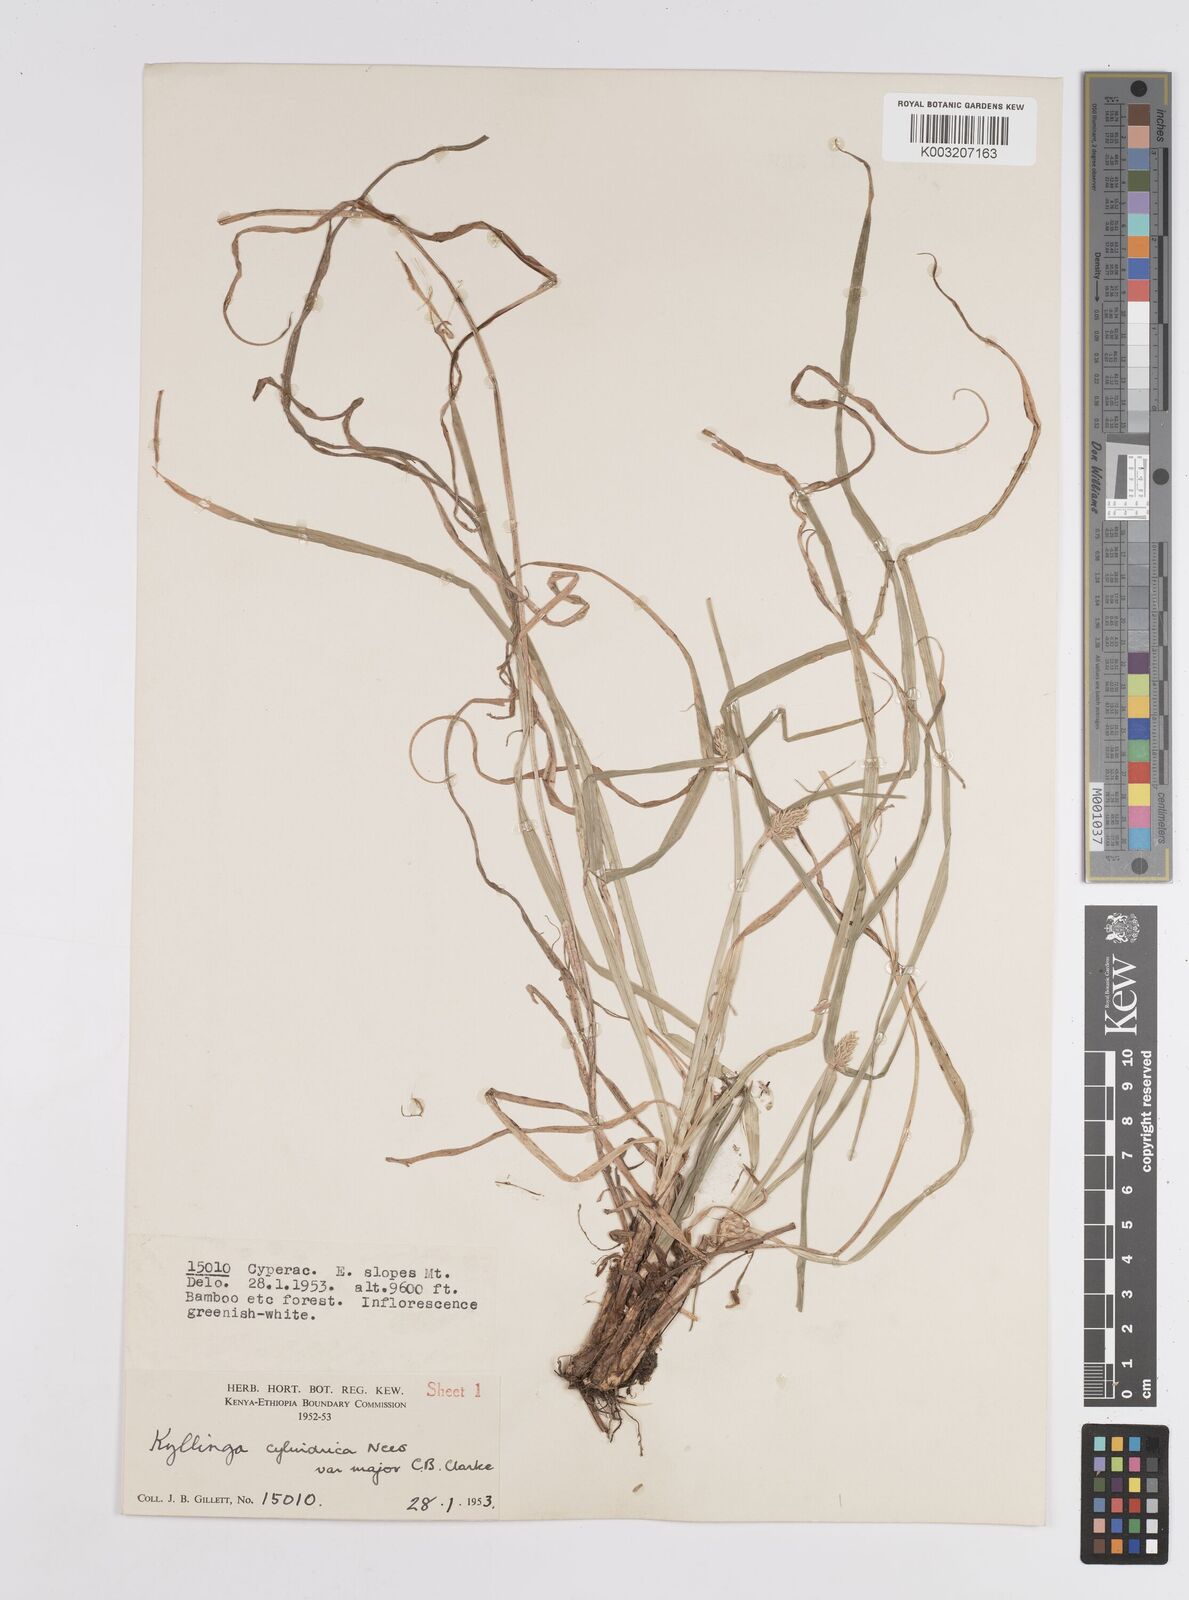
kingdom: Plantae
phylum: Tracheophyta
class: Liliopsida
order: Poales
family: Cyperaceae
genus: Cyperus
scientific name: Cyperus
